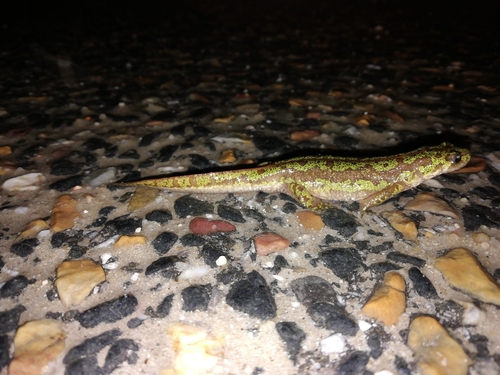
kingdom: Animalia
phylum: Chordata
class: Amphibia
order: Caudata
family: Salamandridae
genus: Triturus
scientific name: Triturus pygmaeus
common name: Southern marbled newt
